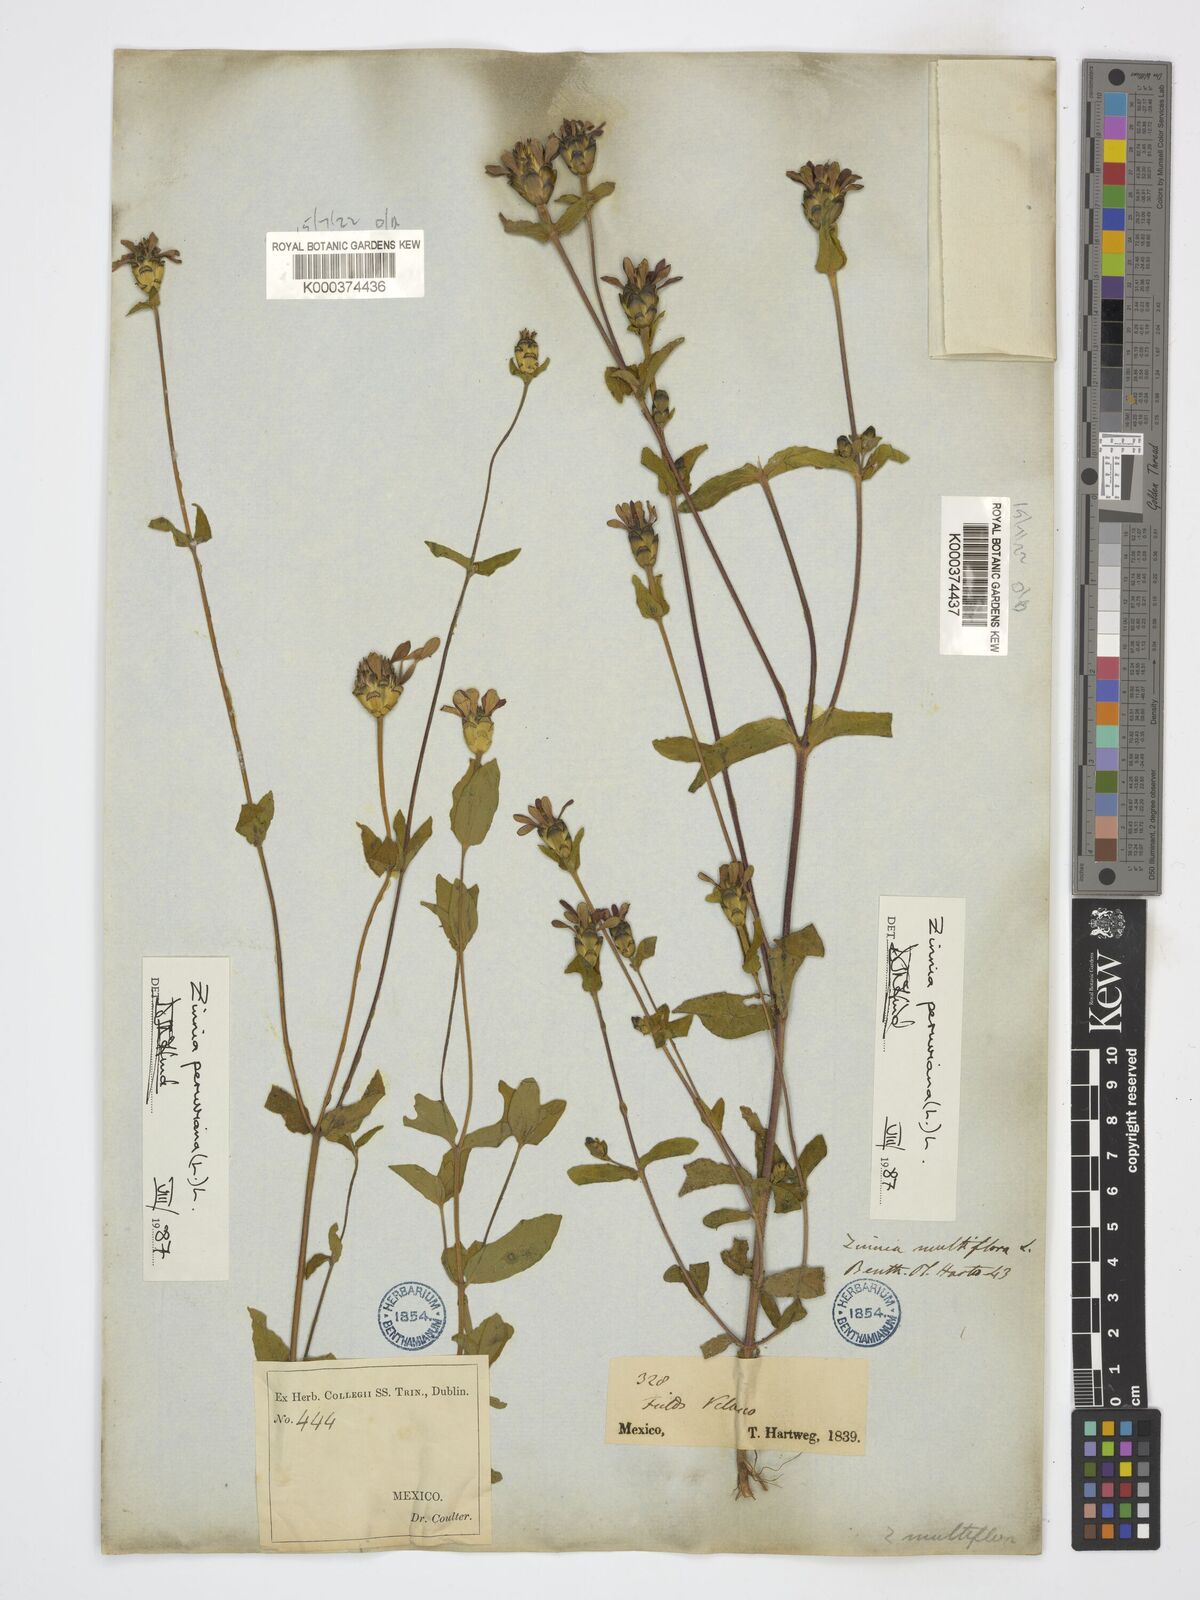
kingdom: Plantae
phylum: Tracheophyta
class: Magnoliopsida
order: Asterales
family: Asteraceae
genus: Zinnia
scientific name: Zinnia peruviana
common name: Peruvian zinnia
